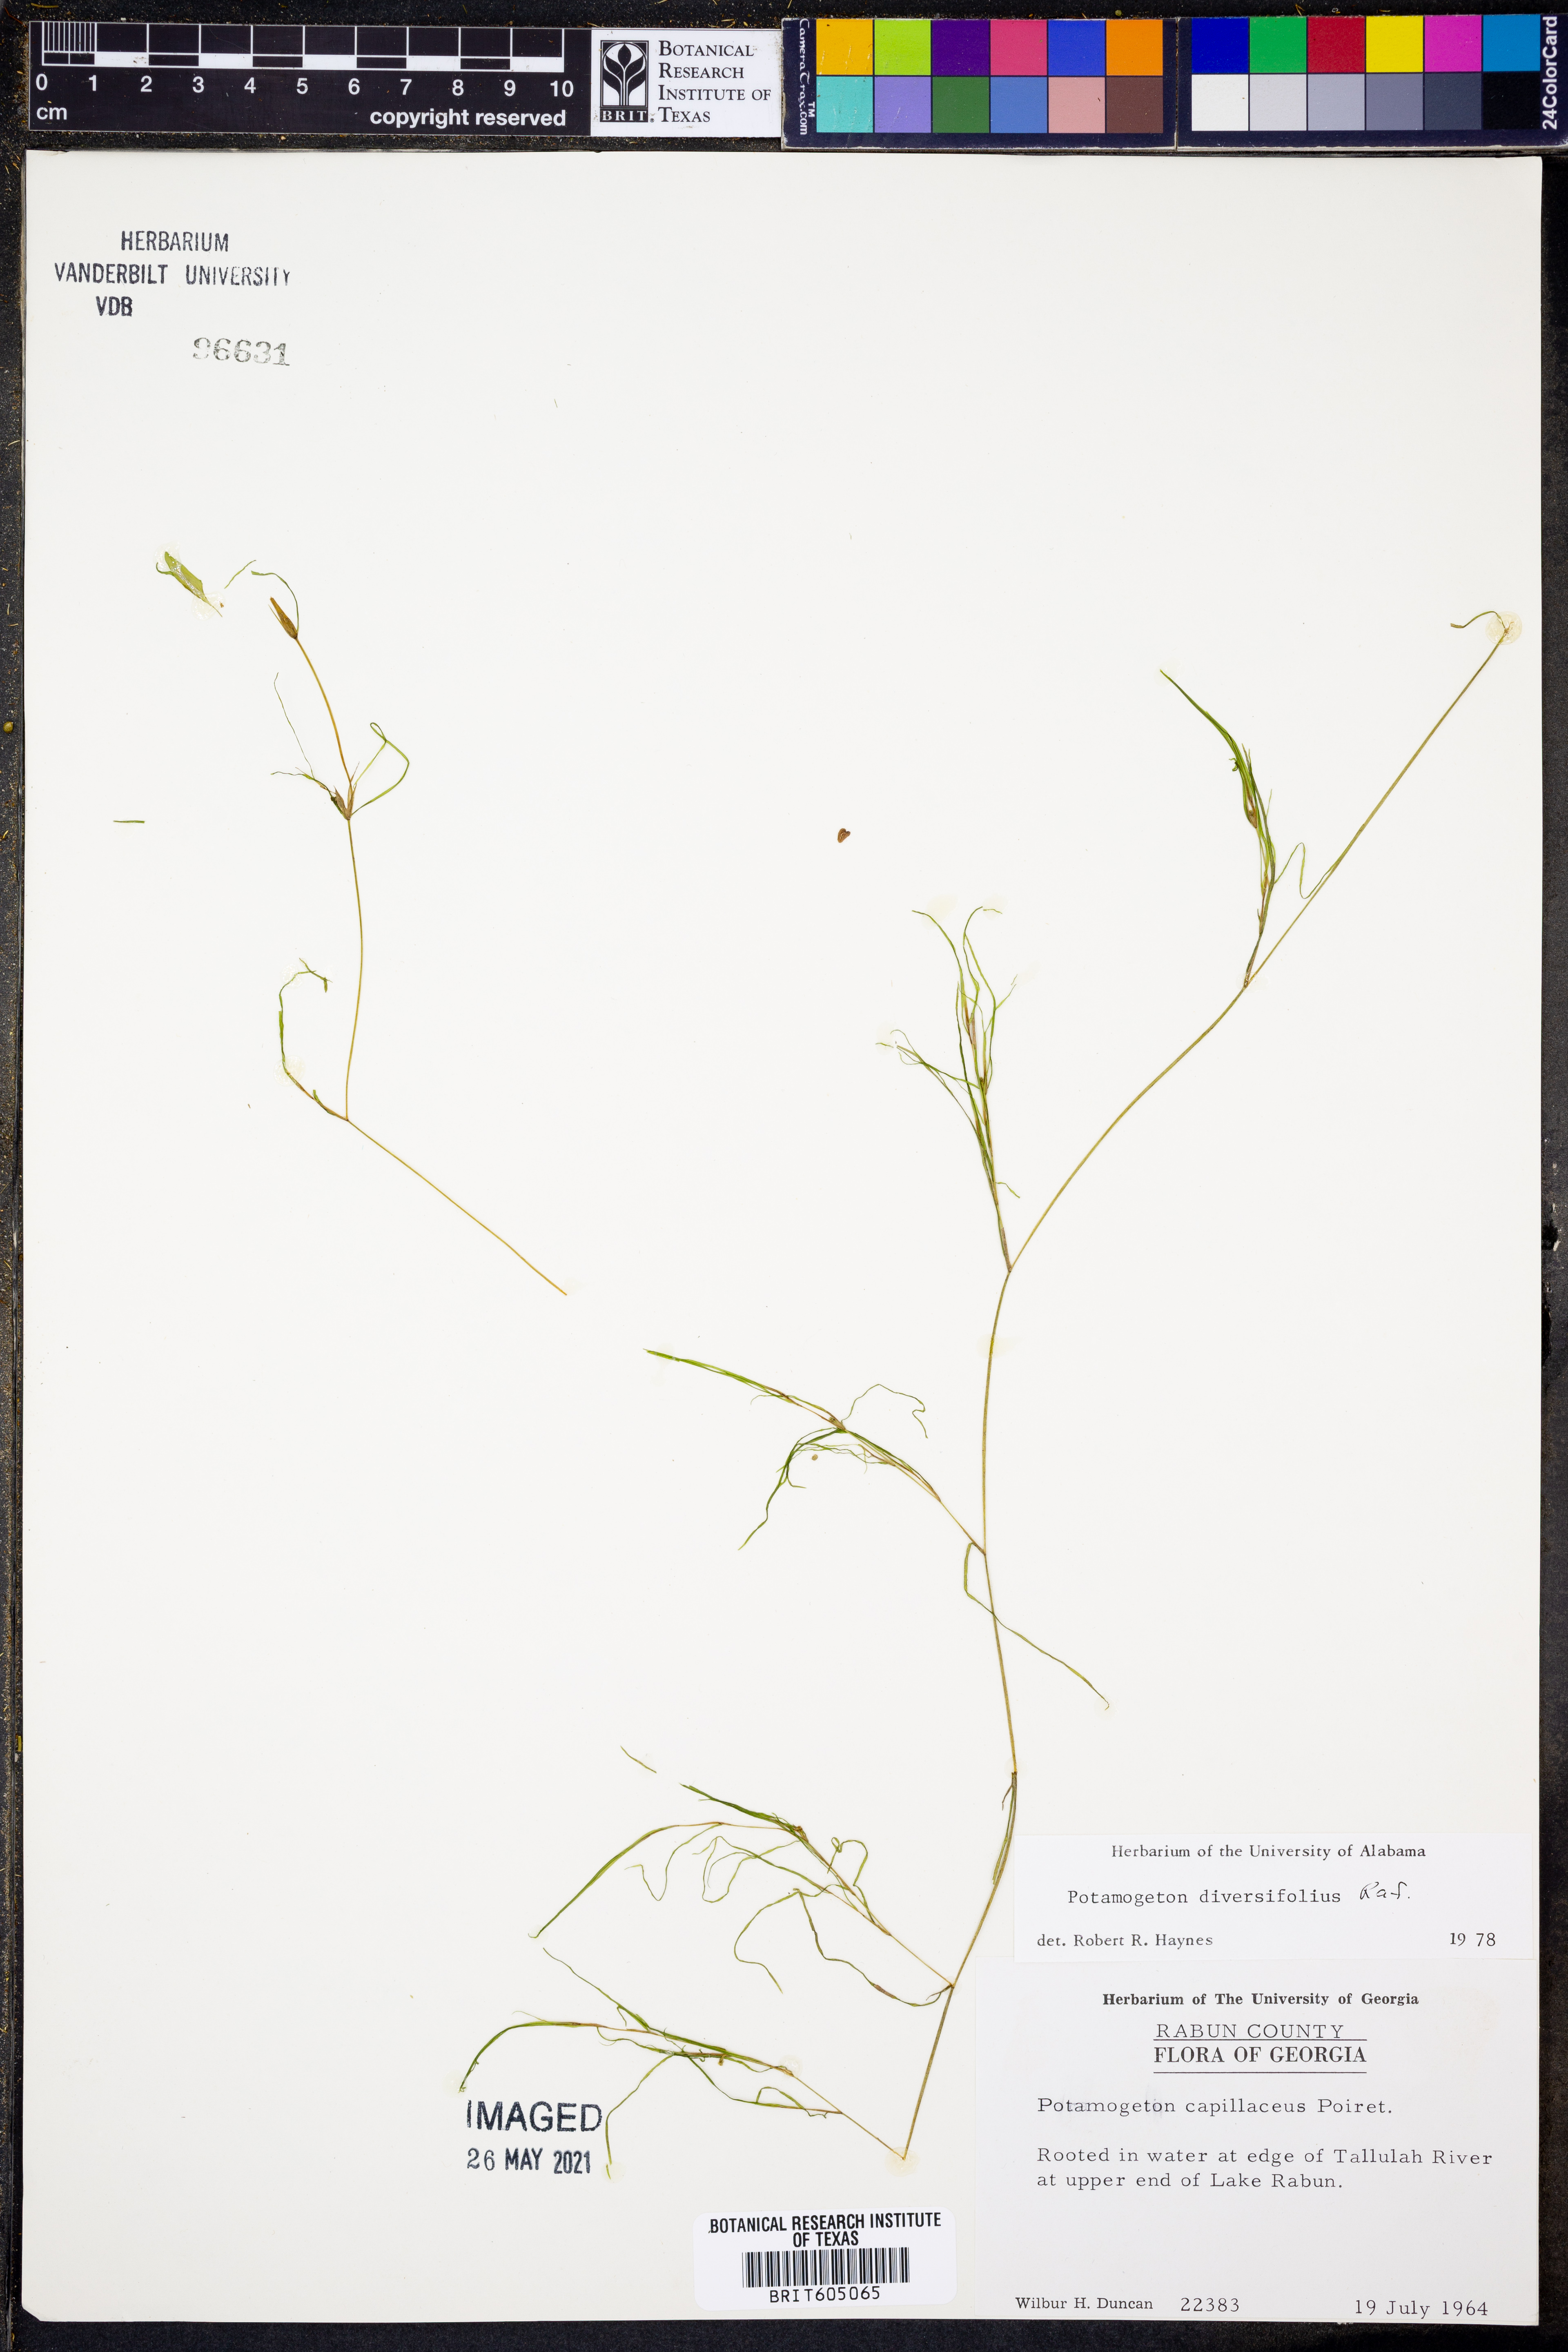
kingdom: Plantae
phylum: Tracheophyta
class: Liliopsida
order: Alismatales
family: Potamogetonaceae
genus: Potamogeton
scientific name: Potamogeton diversifolius
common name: Water-thread pondweed
